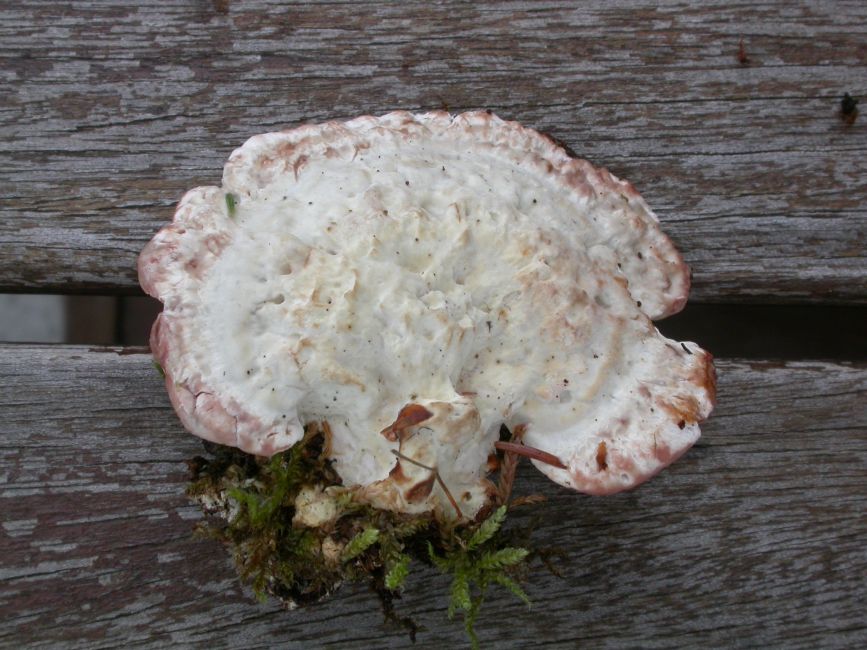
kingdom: Fungi
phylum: Basidiomycota
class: Agaricomycetes
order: Polyporales
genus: Calcipostia
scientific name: Calcipostia guttulata
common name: dråbe-kødporesvamp
